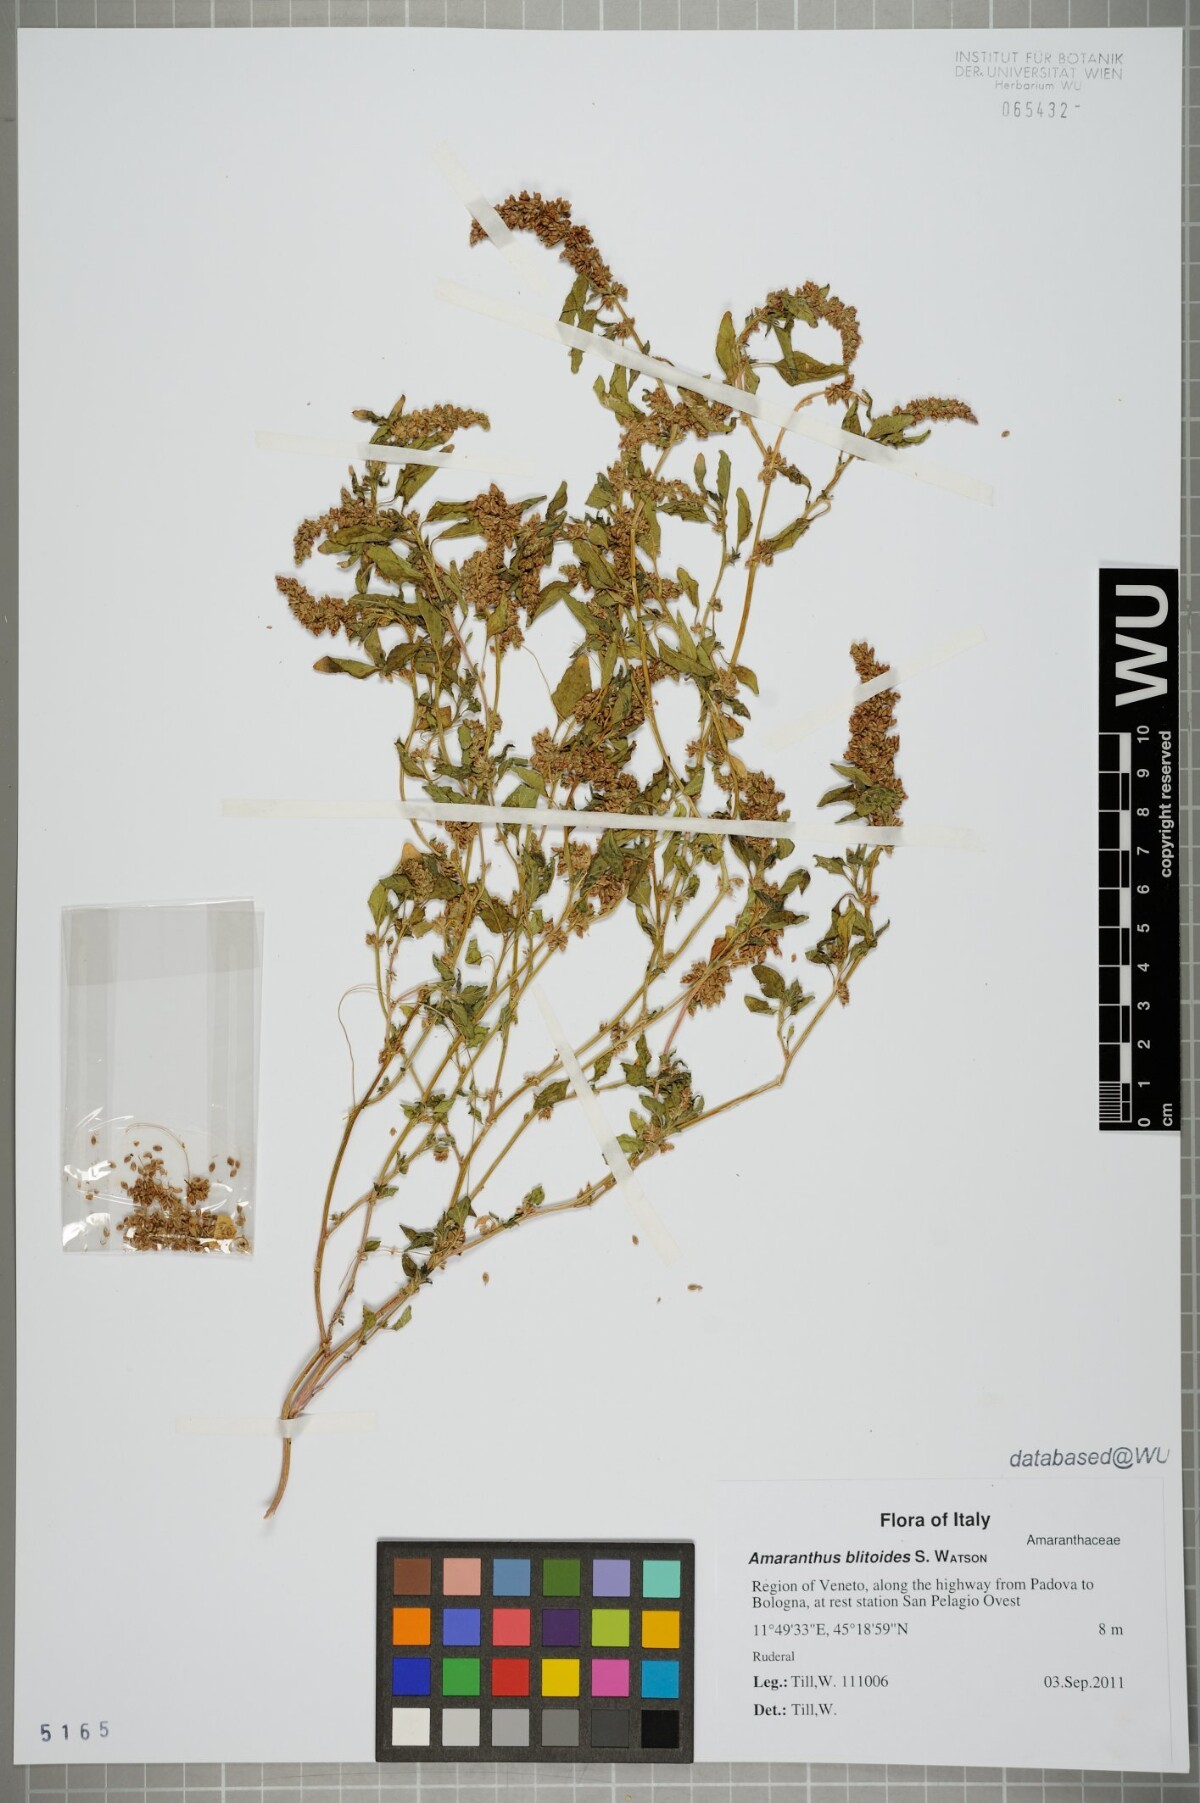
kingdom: Plantae
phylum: Tracheophyta
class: Magnoliopsida
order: Caryophyllales
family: Amaranthaceae
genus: Amaranthus
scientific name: Amaranthus deflexus
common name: Perennial pigweed
